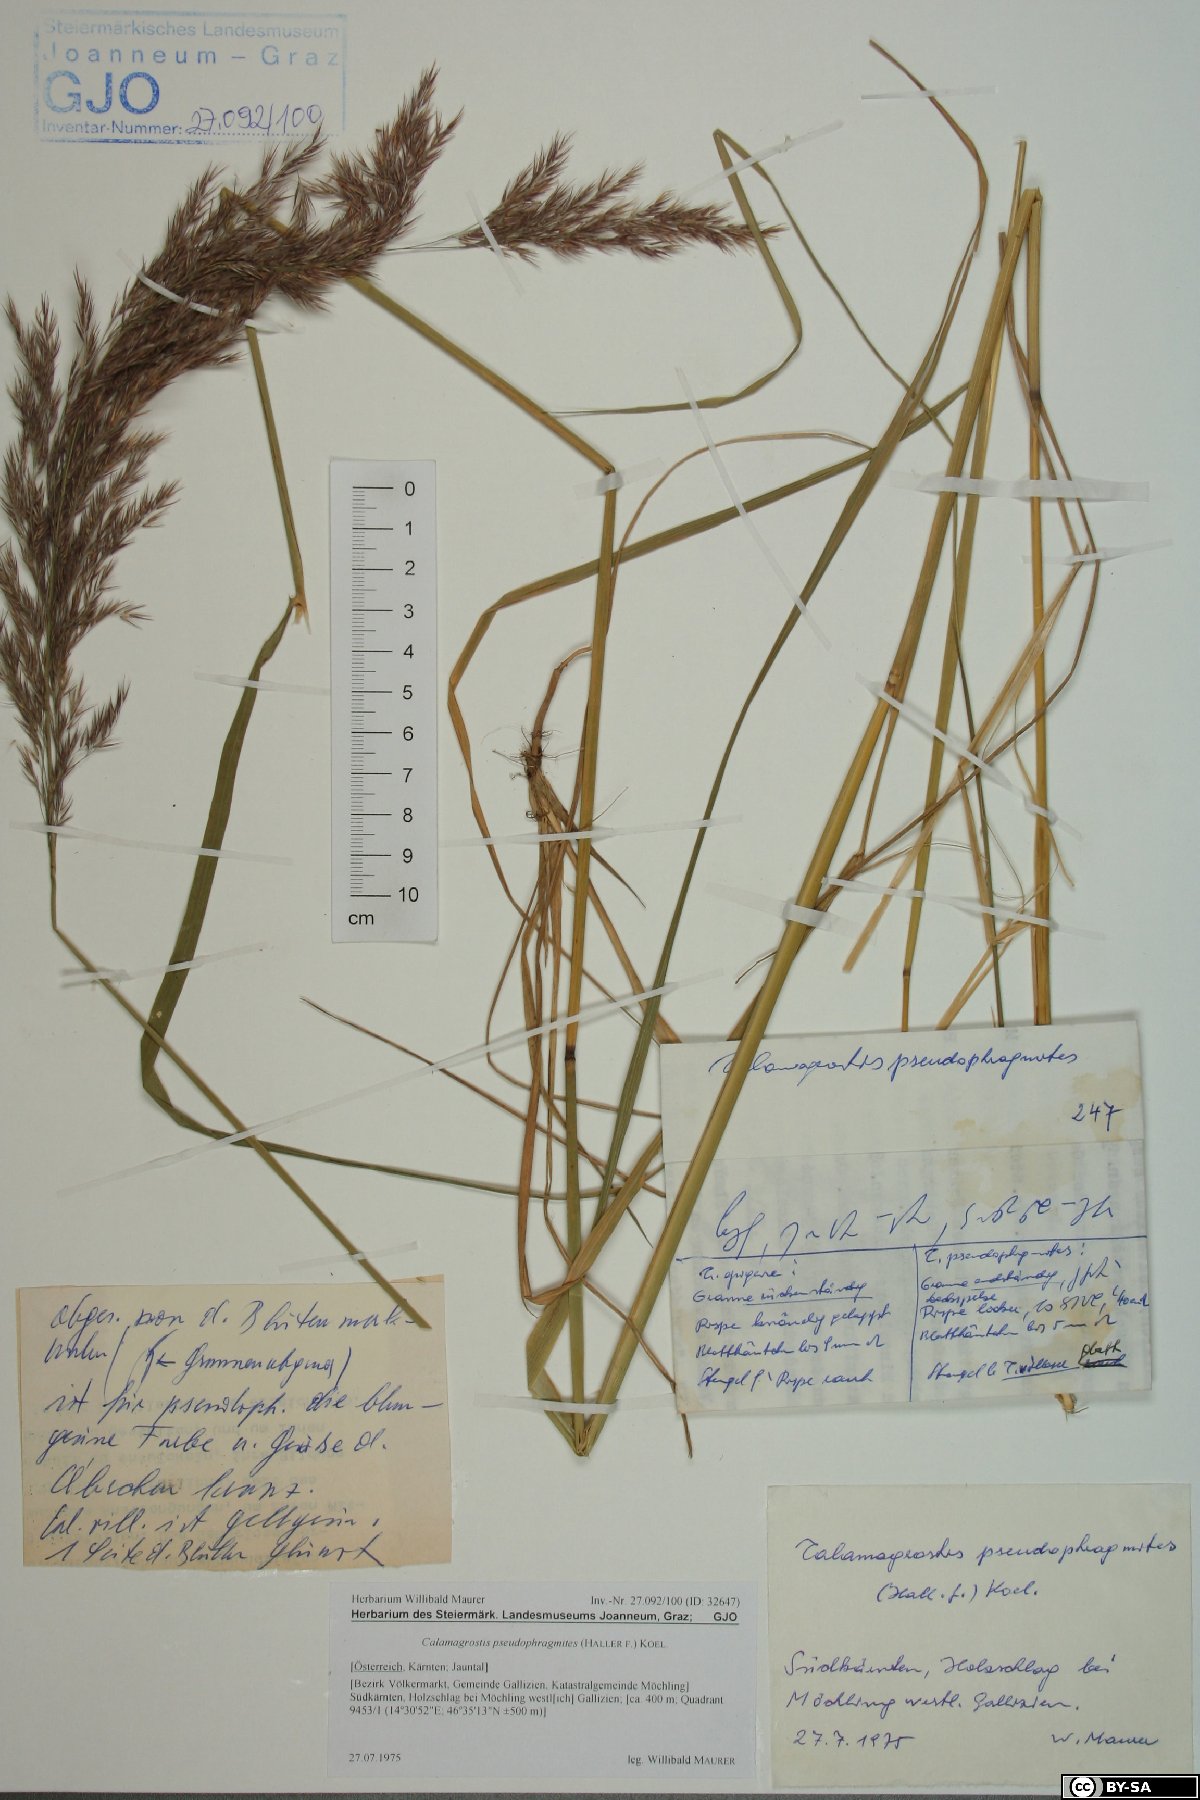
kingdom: Plantae
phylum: Tracheophyta
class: Liliopsida
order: Poales
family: Poaceae
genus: Calamagrostis
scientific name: Calamagrostis pseudophragmites
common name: Coastal small-reed
